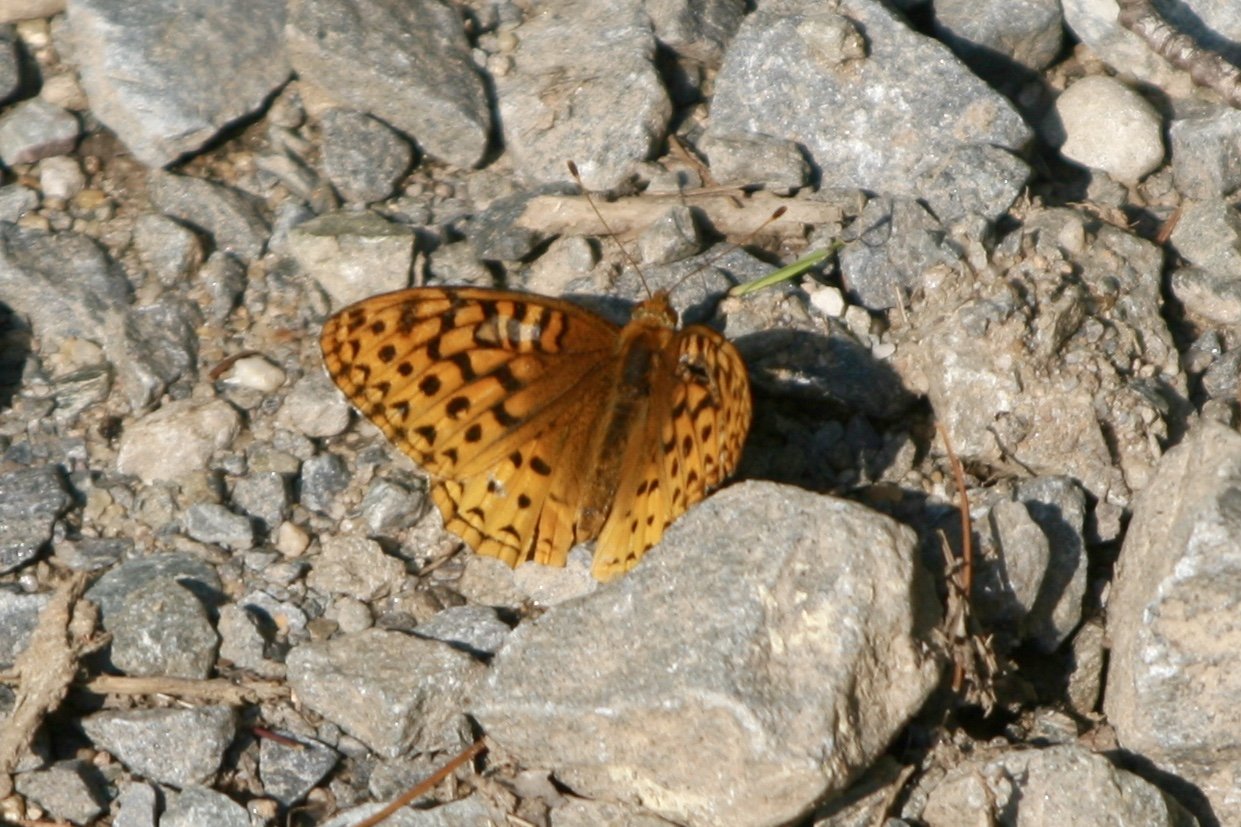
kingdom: Animalia
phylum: Arthropoda
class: Insecta
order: Lepidoptera
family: Nymphalidae
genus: Speyeria
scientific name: Speyeria cybele
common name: Great Spangled Fritillary
